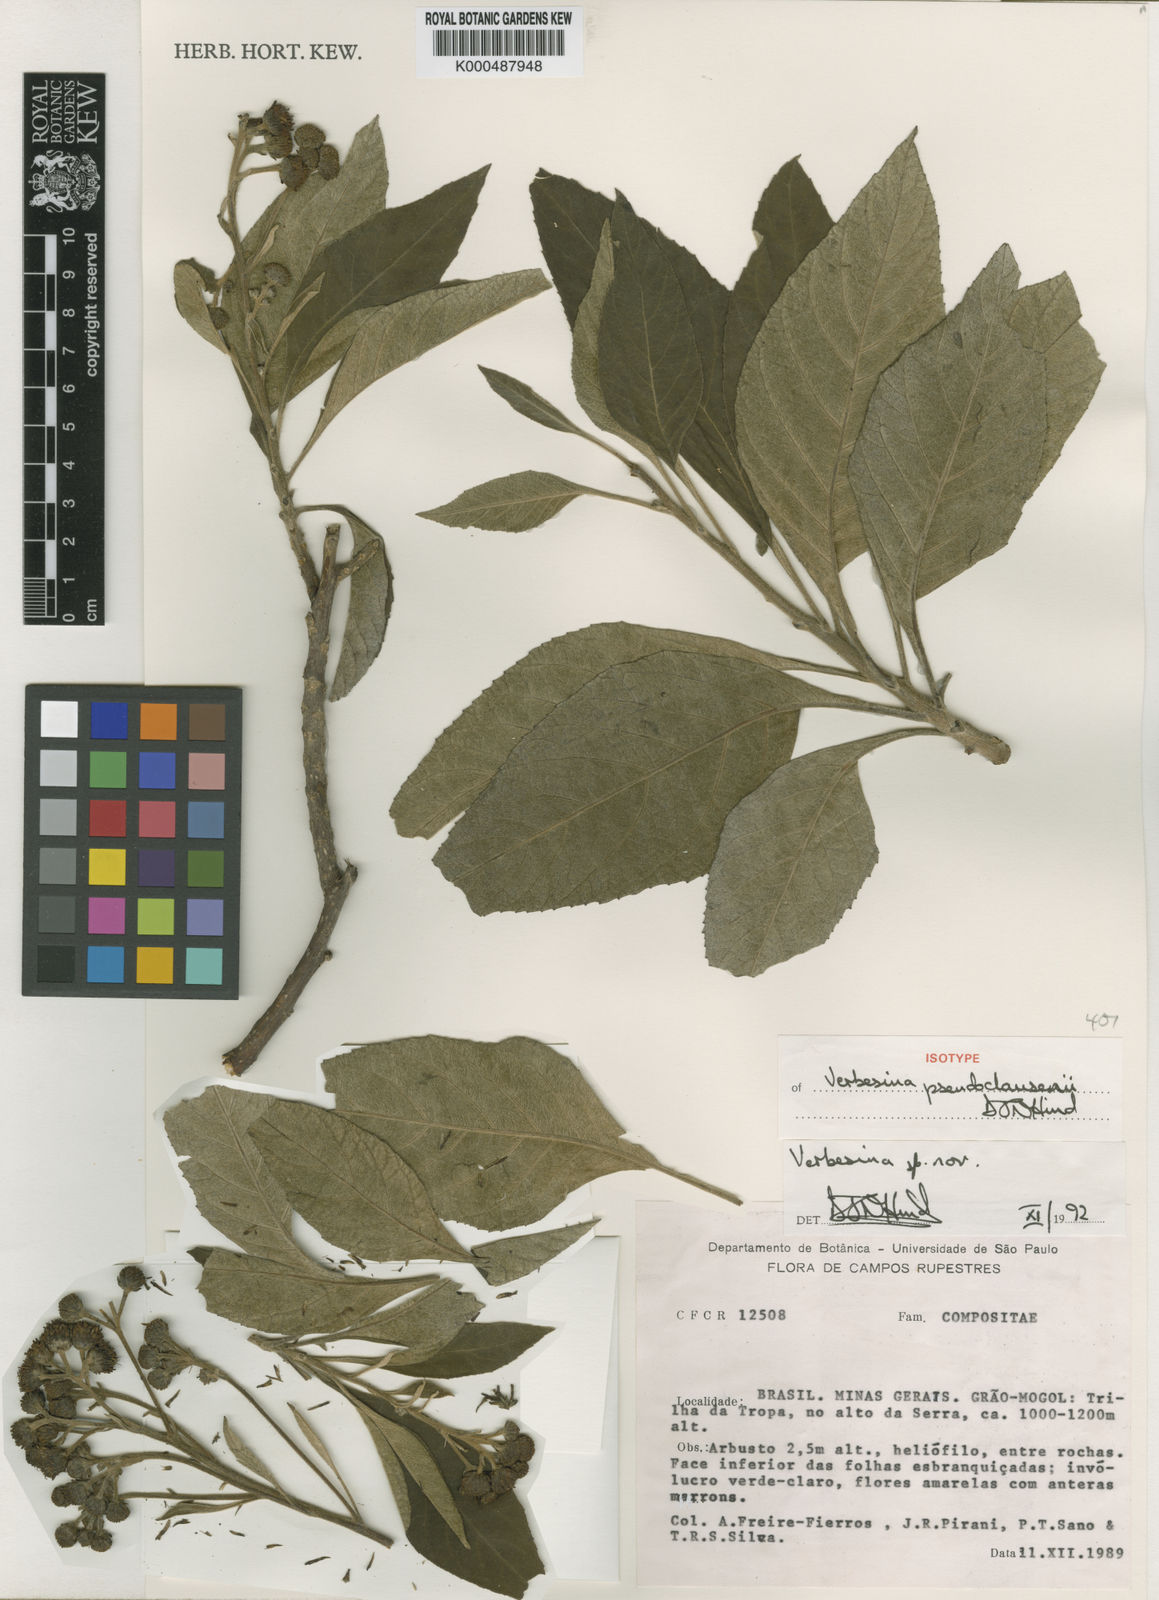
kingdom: Plantae
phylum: Tracheophyta
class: Magnoliopsida
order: Asterales
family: Asteraceae
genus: Verbesina
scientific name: Verbesina pseudoclaussenii
